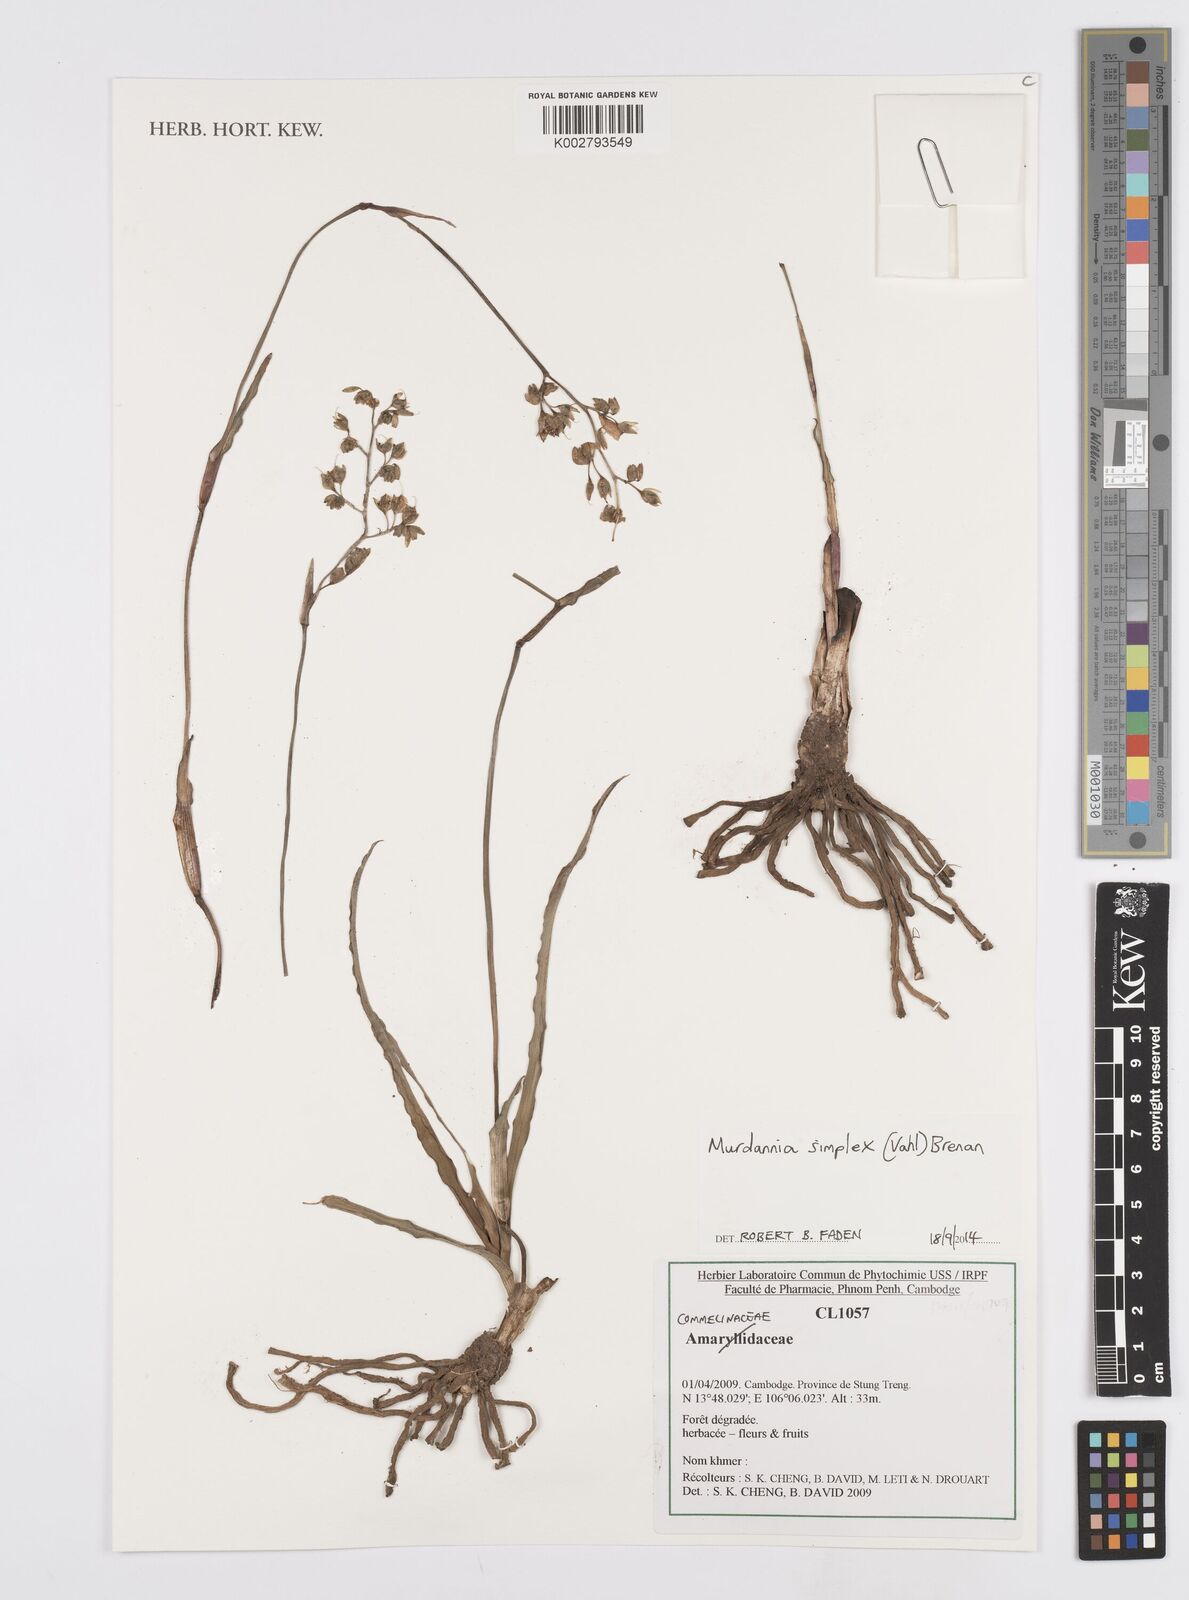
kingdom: Plantae
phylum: Tracheophyta
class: Liliopsida
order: Commelinales
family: Commelinaceae
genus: Murdannia
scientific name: Murdannia simplex
